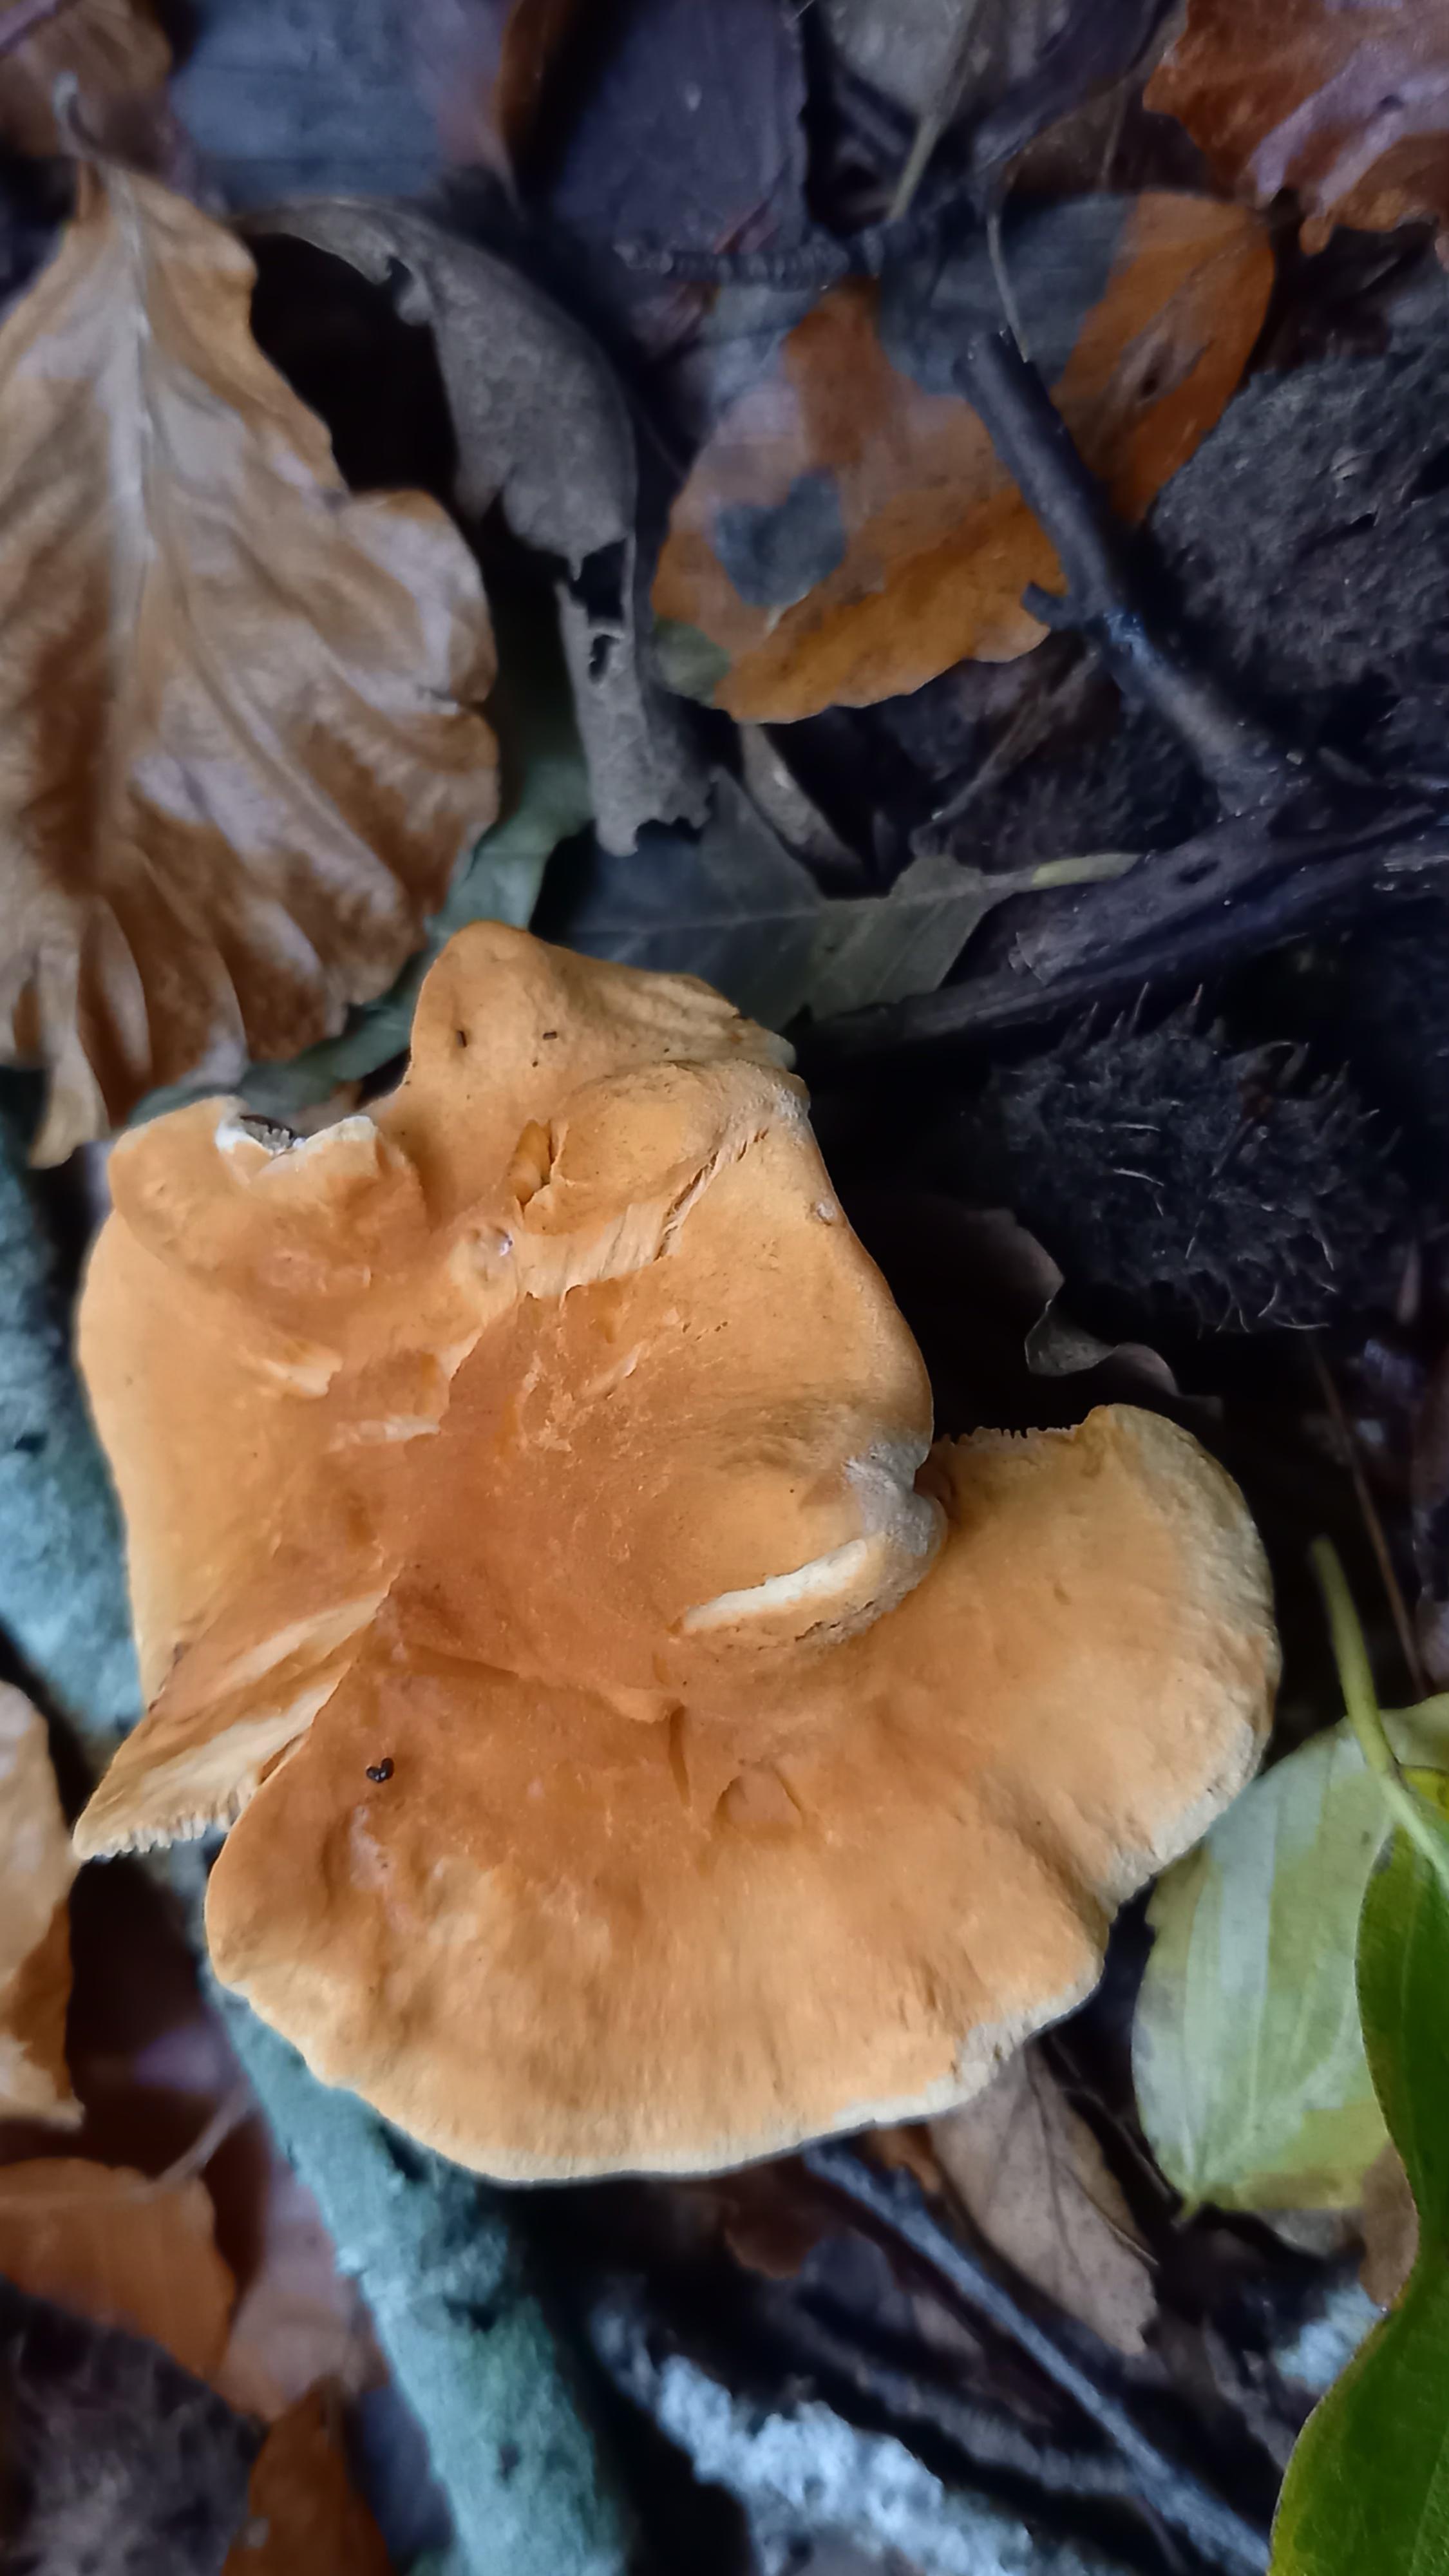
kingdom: Fungi
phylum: Basidiomycota
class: Agaricomycetes
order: Cantharellales
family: Hydnaceae
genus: Hydnum
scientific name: Hydnum
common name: pigsvamp
